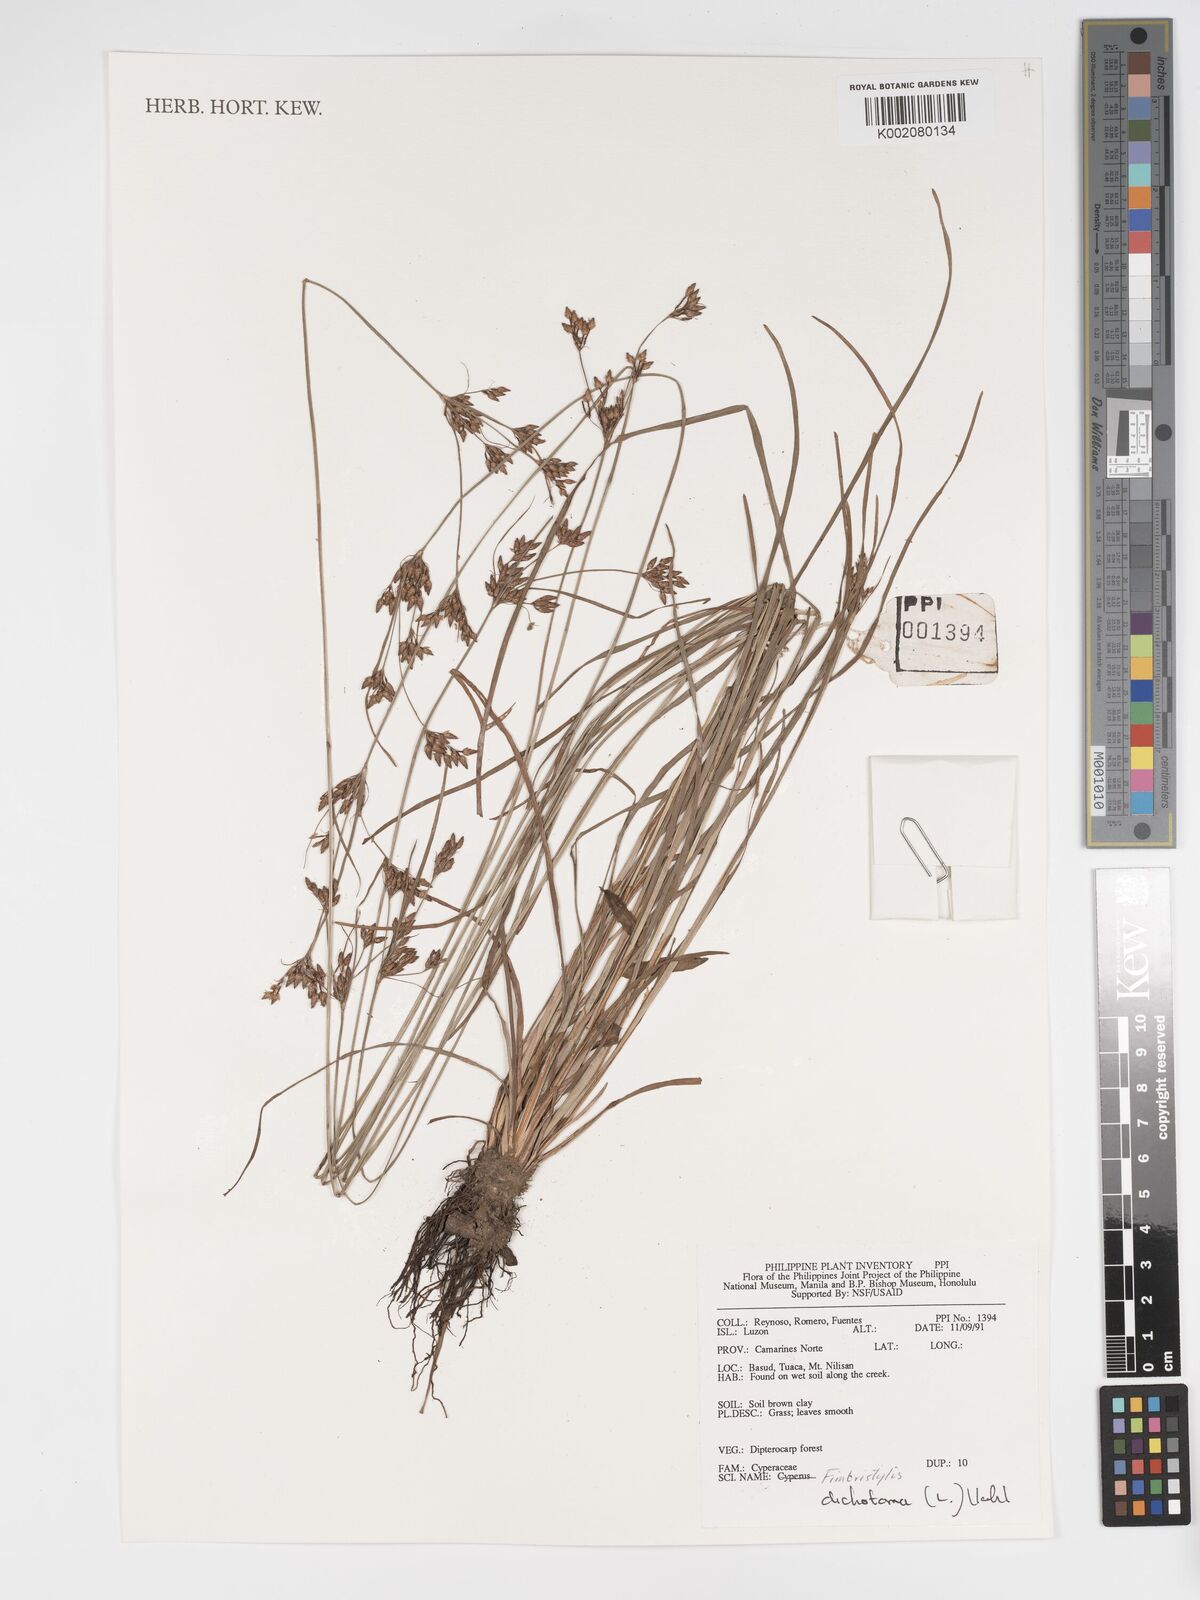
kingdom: Plantae
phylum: Tracheophyta
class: Liliopsida
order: Poales
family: Cyperaceae
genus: Fimbristylis
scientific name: Fimbristylis dichotoma
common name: Forked fimbry
